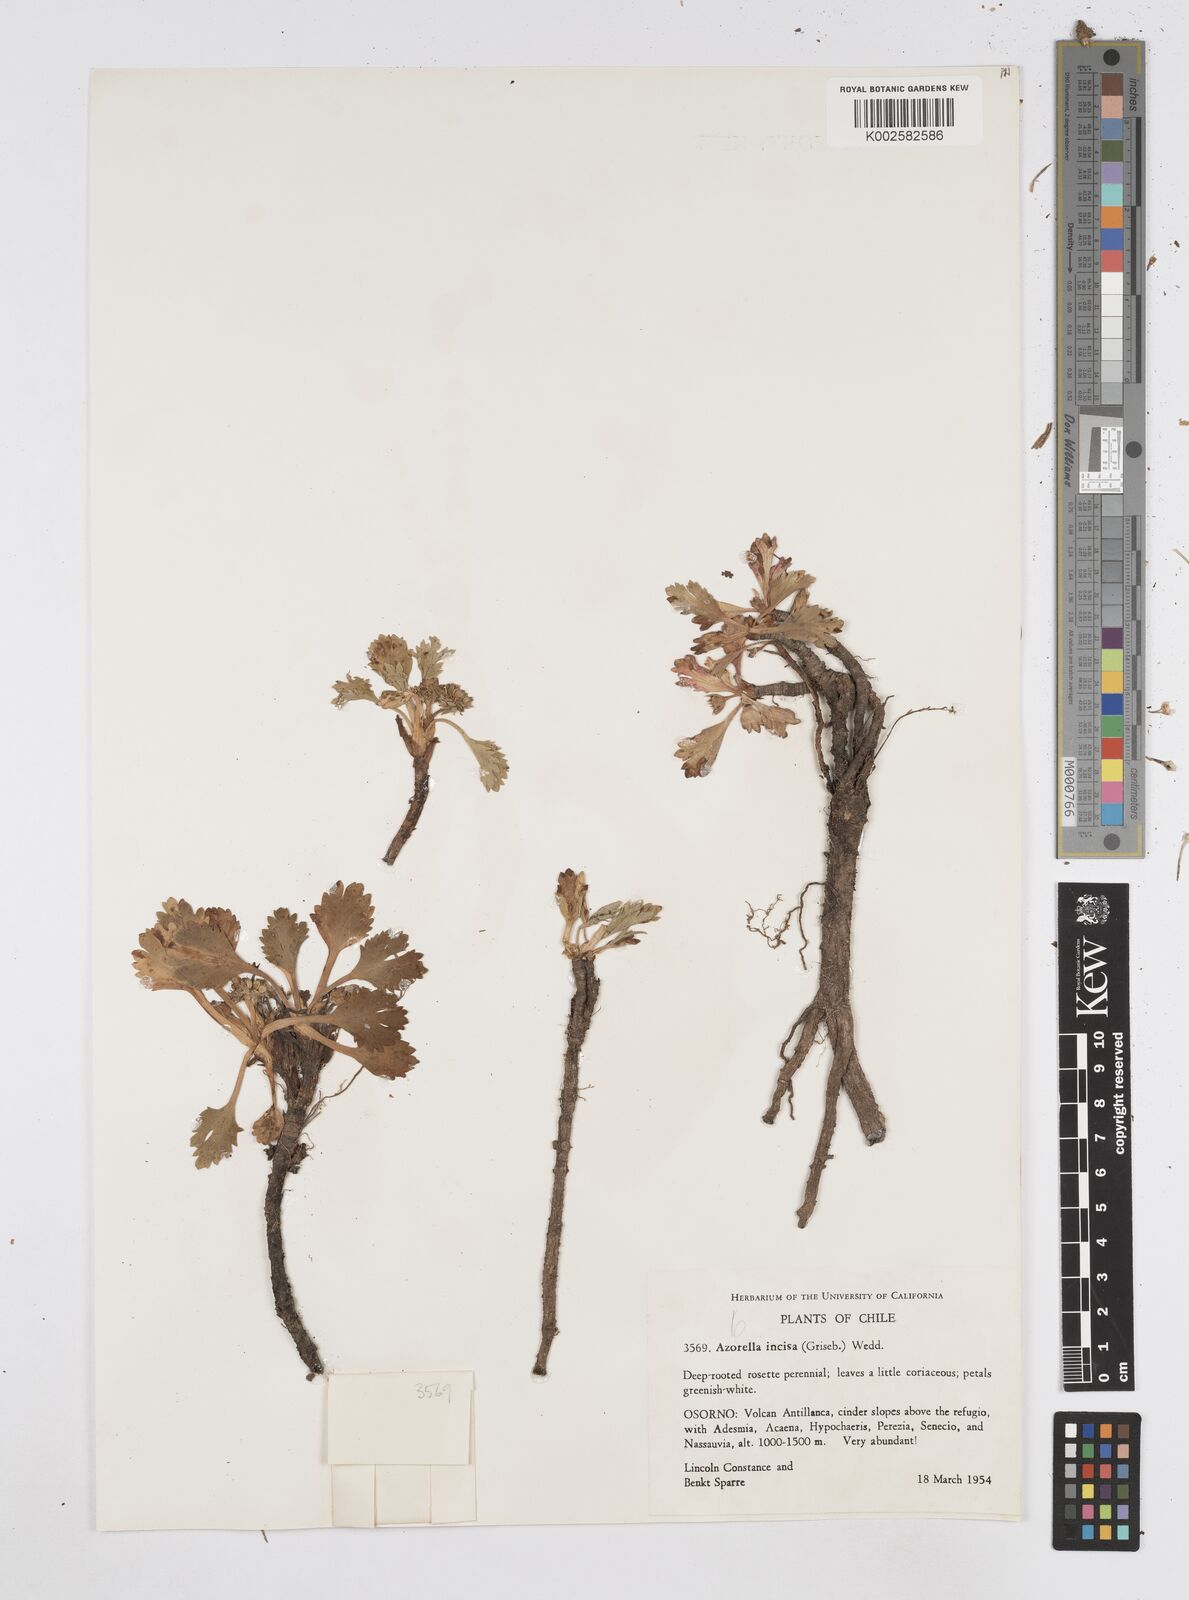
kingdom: Plantae
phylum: Tracheophyta
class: Magnoliopsida
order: Apiales
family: Apiaceae
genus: Azorella
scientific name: Azorella diversifolia
